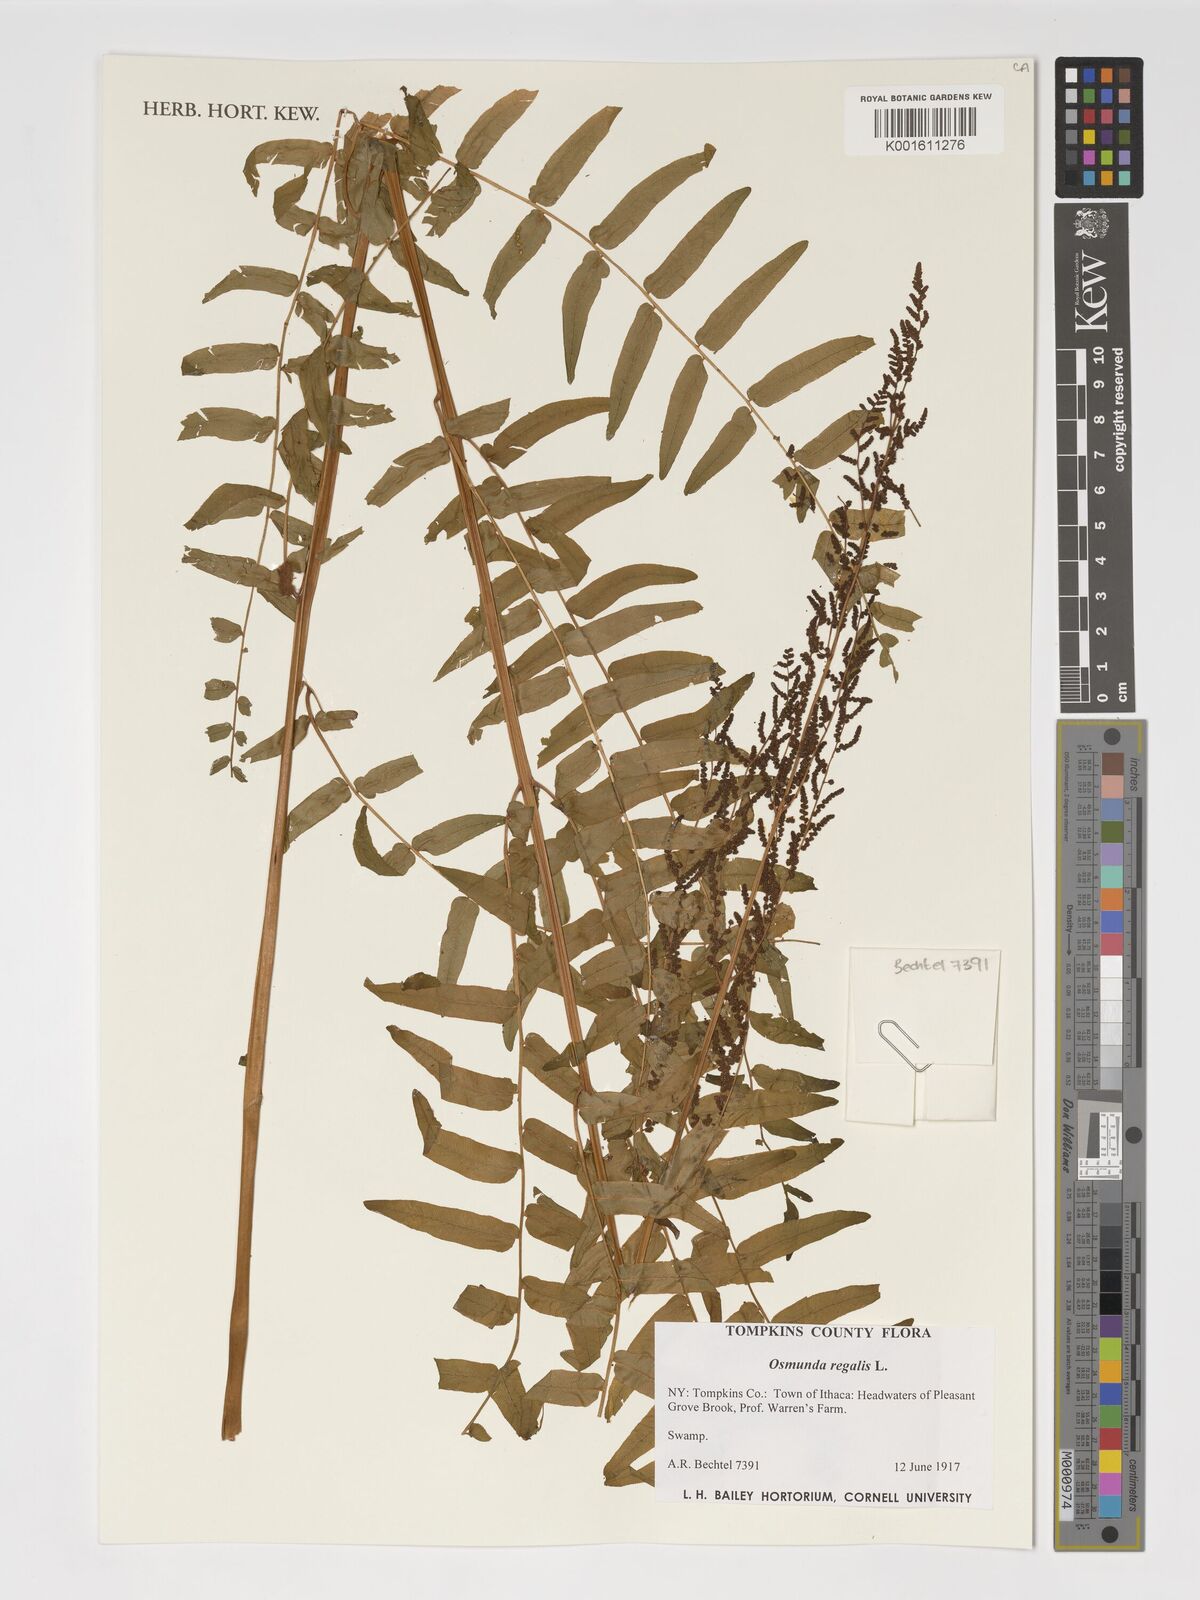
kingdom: Plantae
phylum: Tracheophyta
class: Polypodiopsida
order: Osmundales
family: Osmundaceae
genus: Osmunda
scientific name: Osmunda regalis
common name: Royal fern
